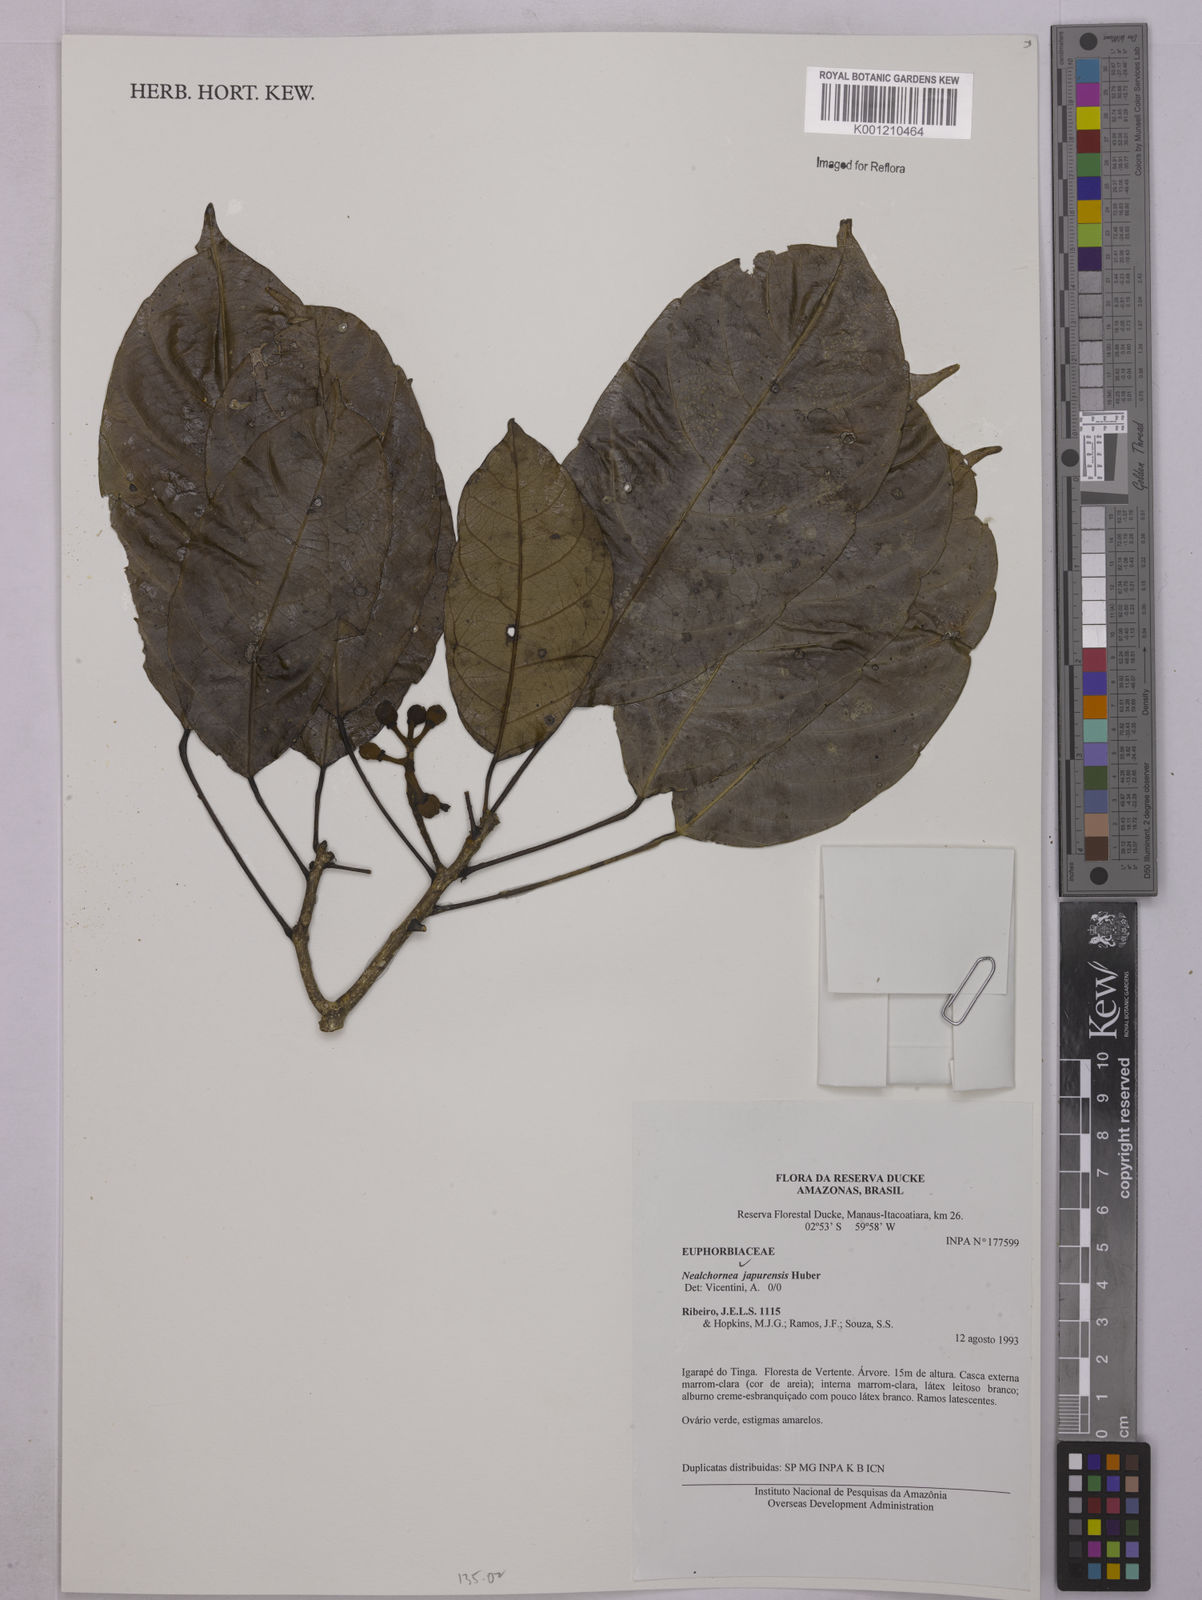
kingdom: Plantae
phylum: Tracheophyta
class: Magnoliopsida
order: Malpighiales
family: Euphorbiaceae
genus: Nealchornea
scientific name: Nealchornea yapurensis
